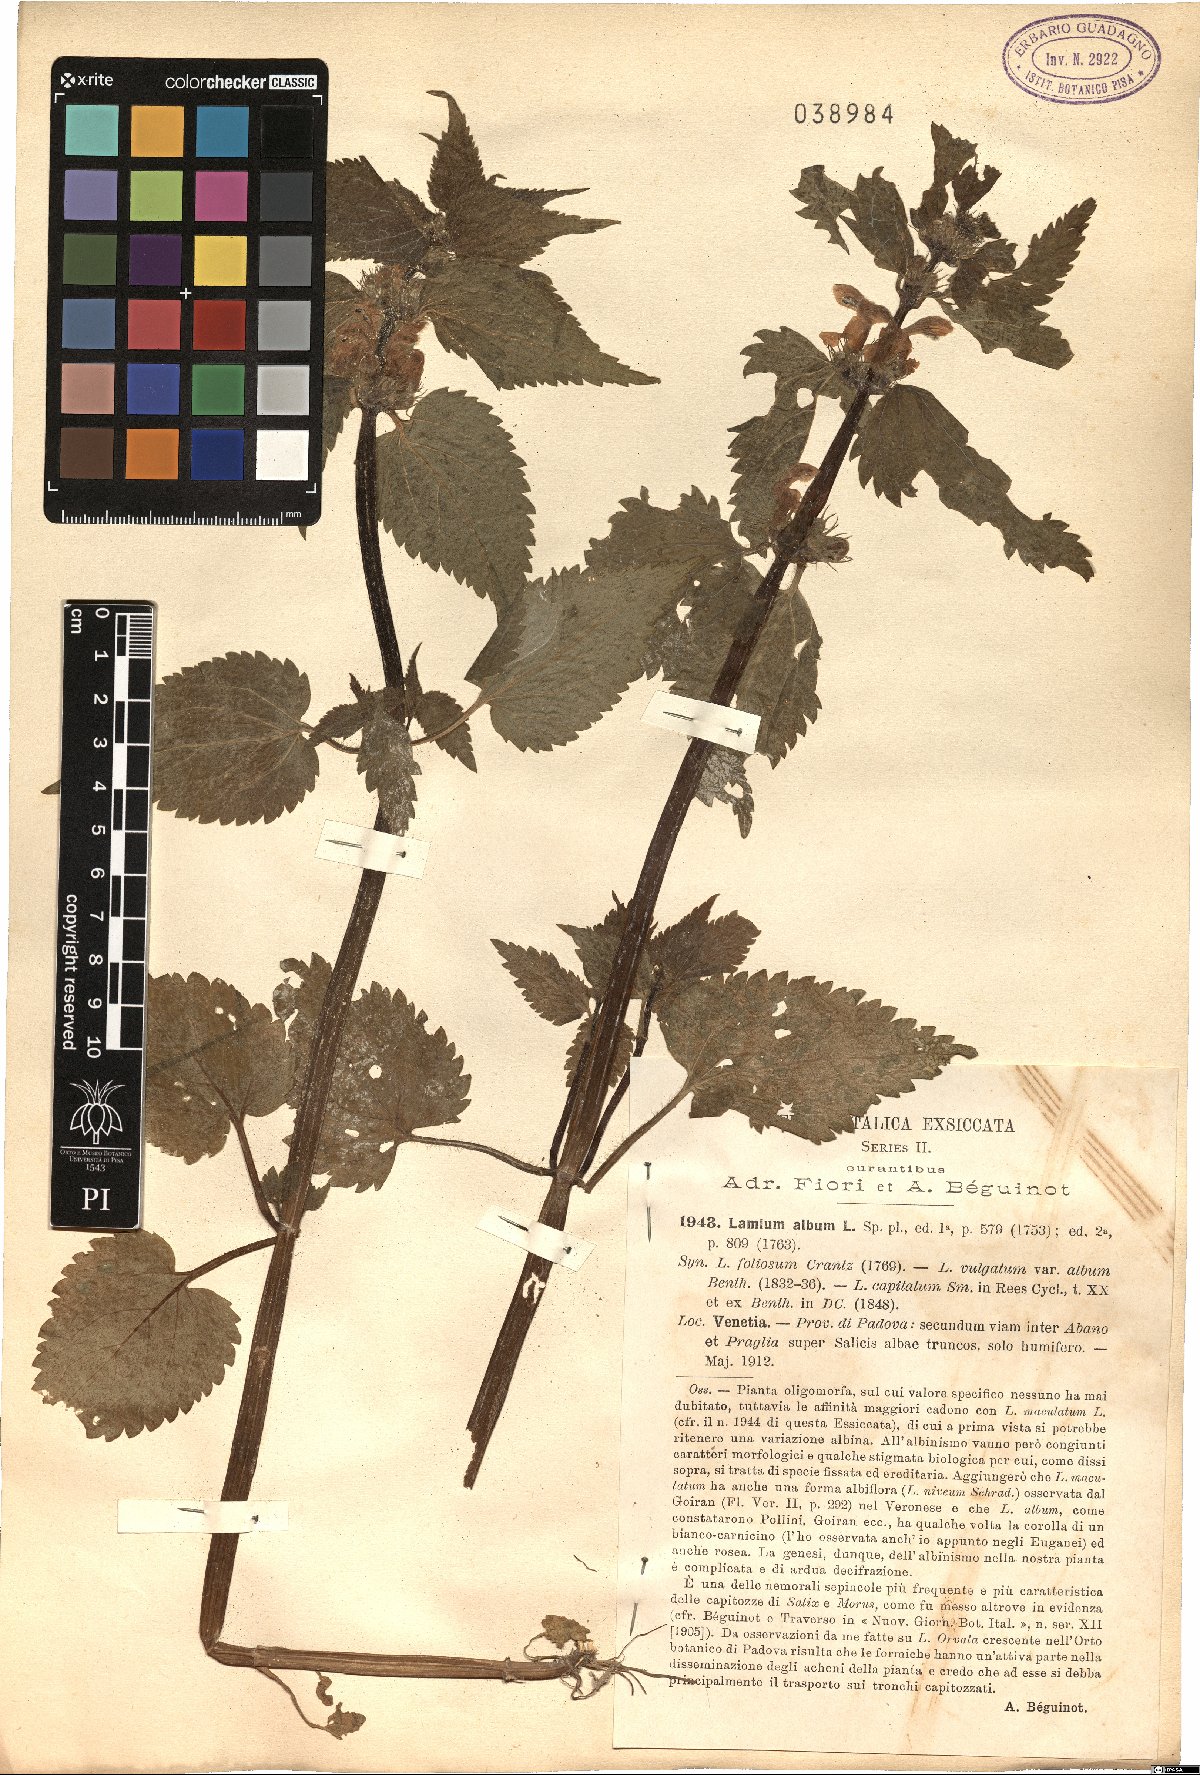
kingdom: Plantae
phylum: Tracheophyta
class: Magnoliopsida
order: Lamiales
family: Lamiaceae
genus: Lamium
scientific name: Lamium album
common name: White dead-nettle
